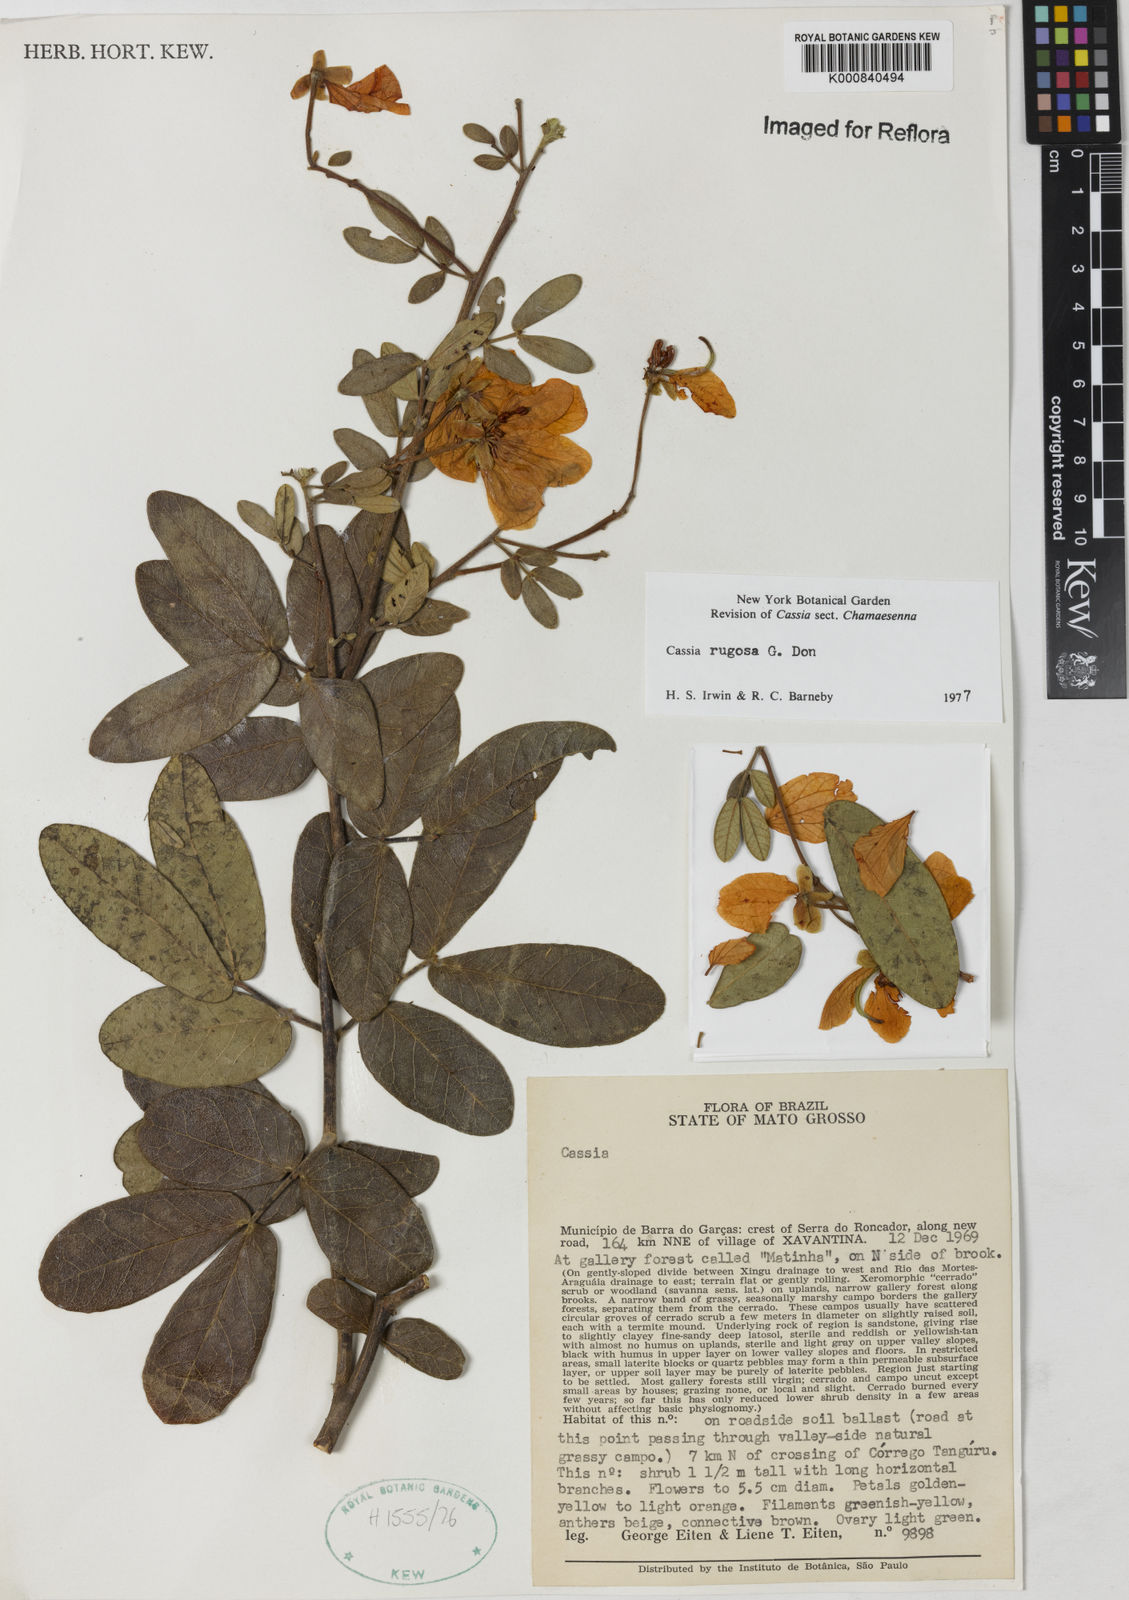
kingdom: Plantae
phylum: Tracheophyta
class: Magnoliopsida
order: Fabales
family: Fabaceae
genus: Senna
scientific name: Senna rugosa
